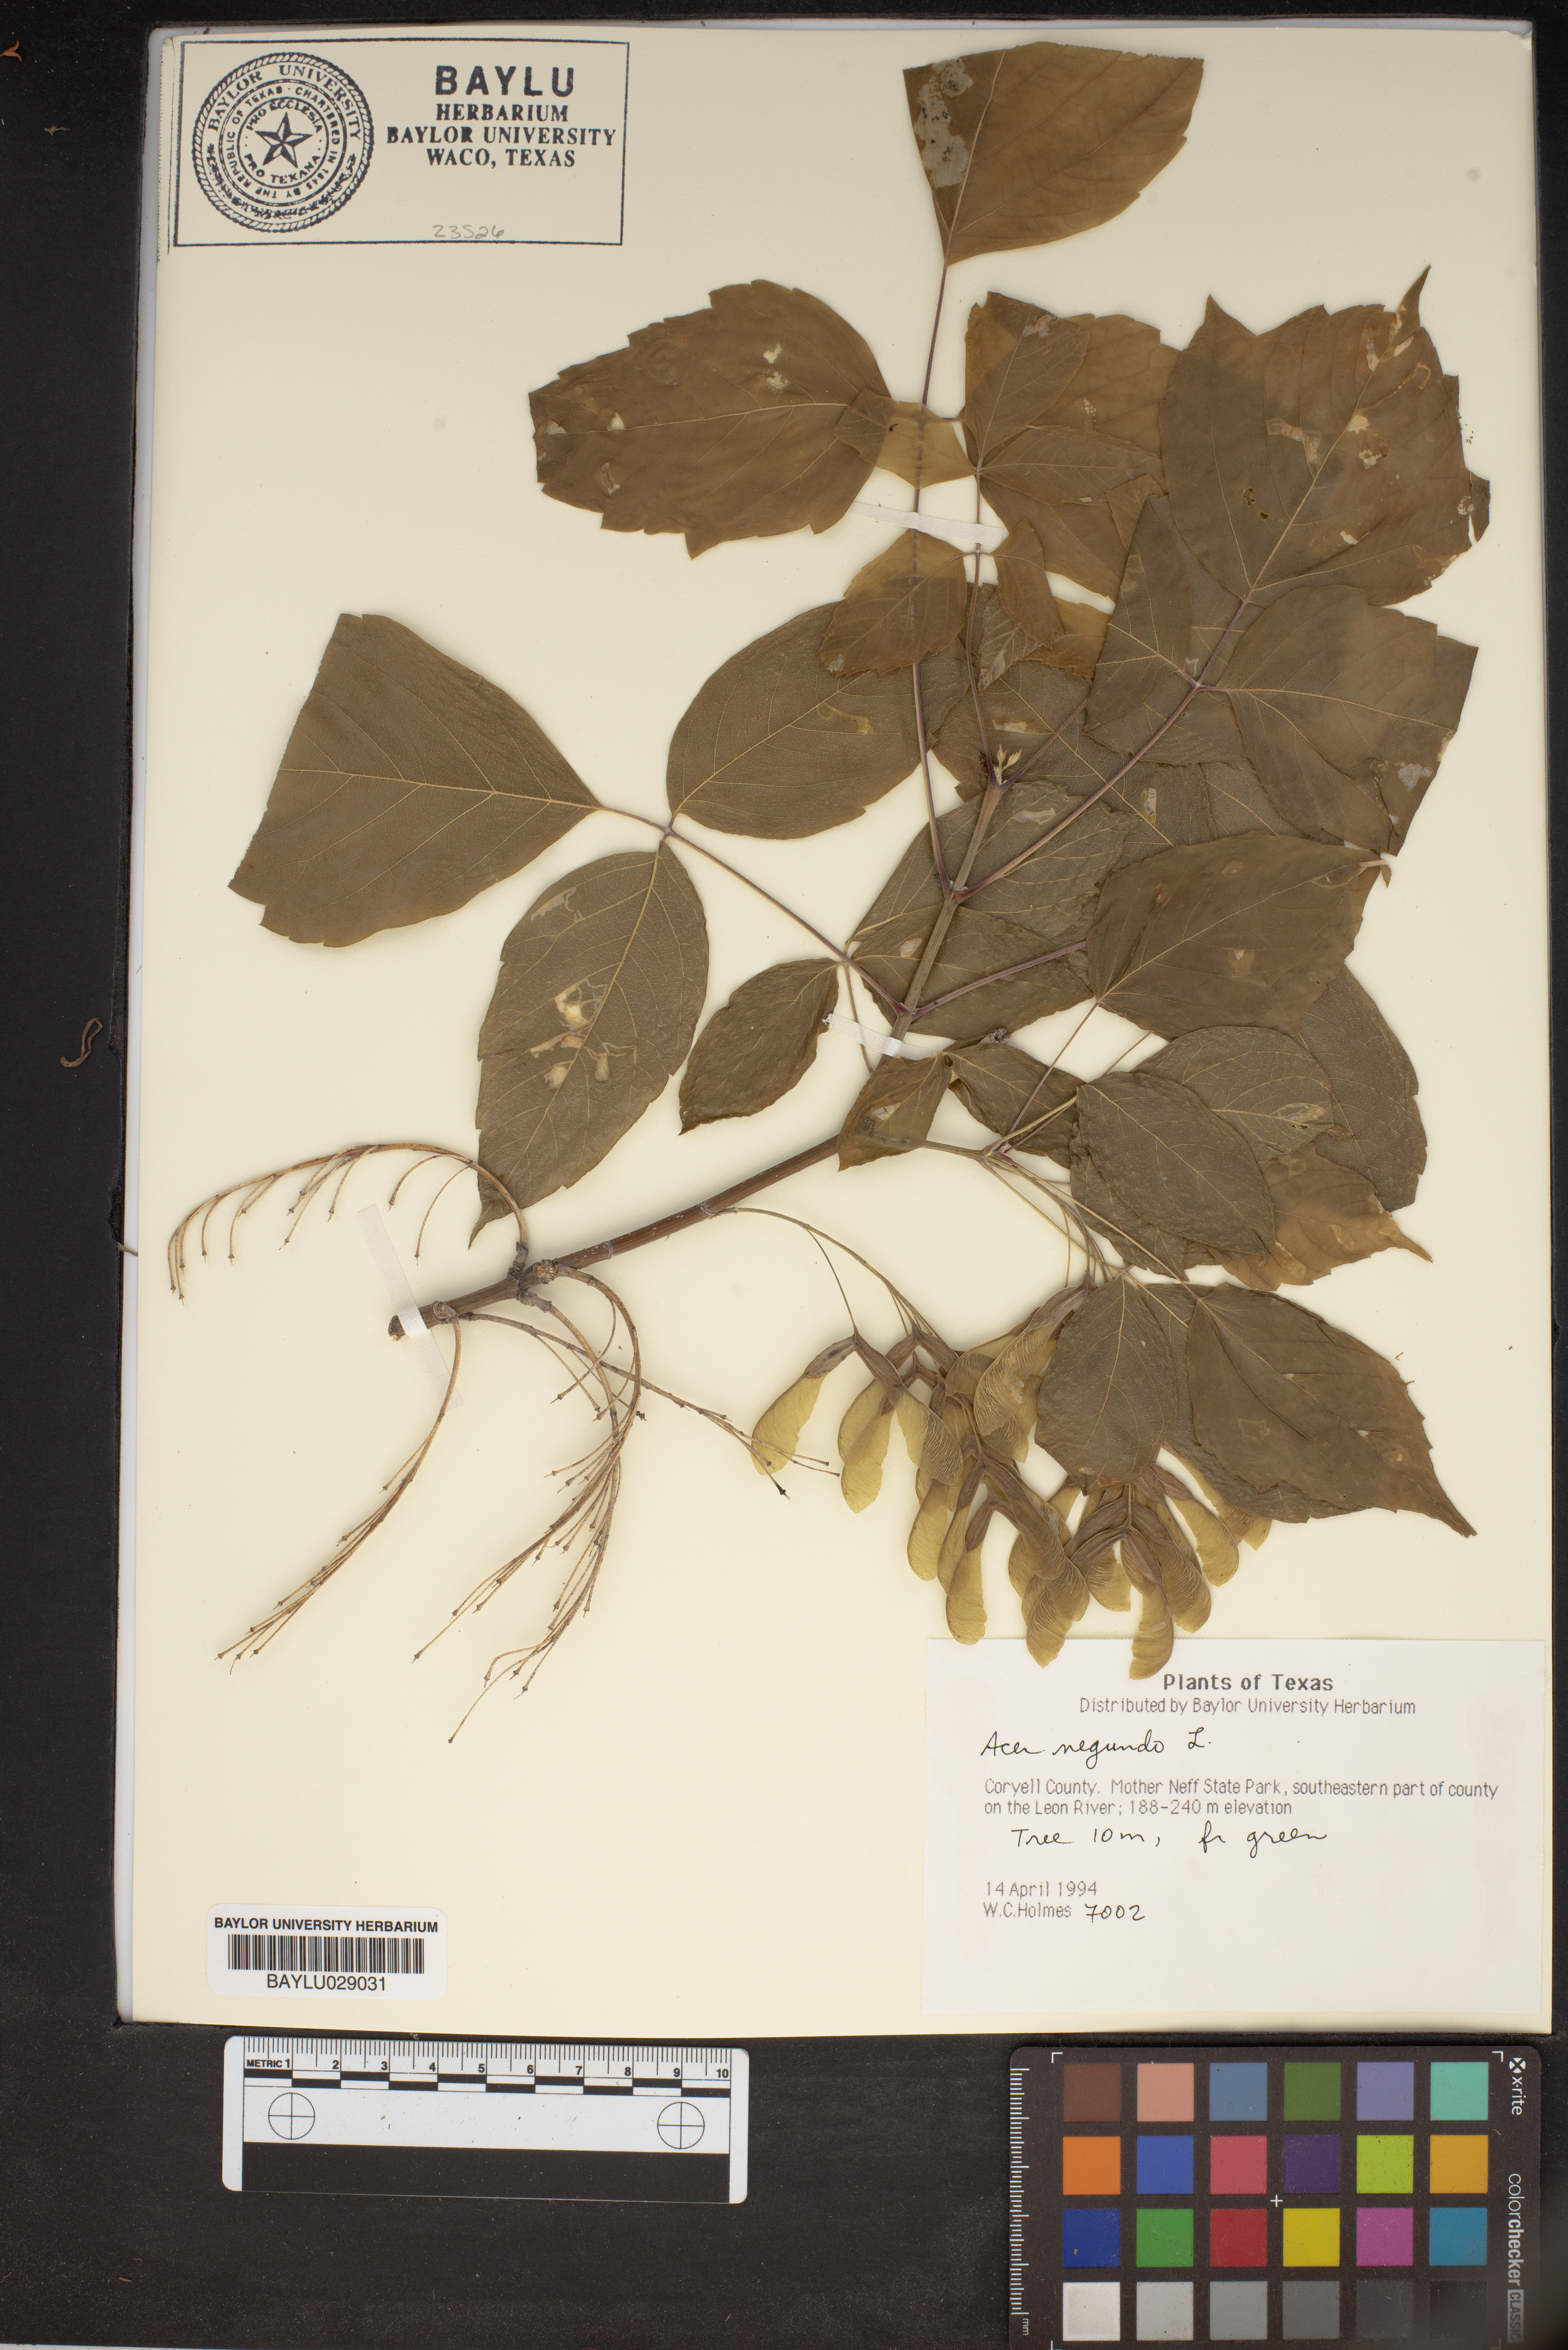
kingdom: Plantae
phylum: Tracheophyta
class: Magnoliopsida
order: Sapindales
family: Sapindaceae
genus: Acer
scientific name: Acer negundo
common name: Ashleaf maple
